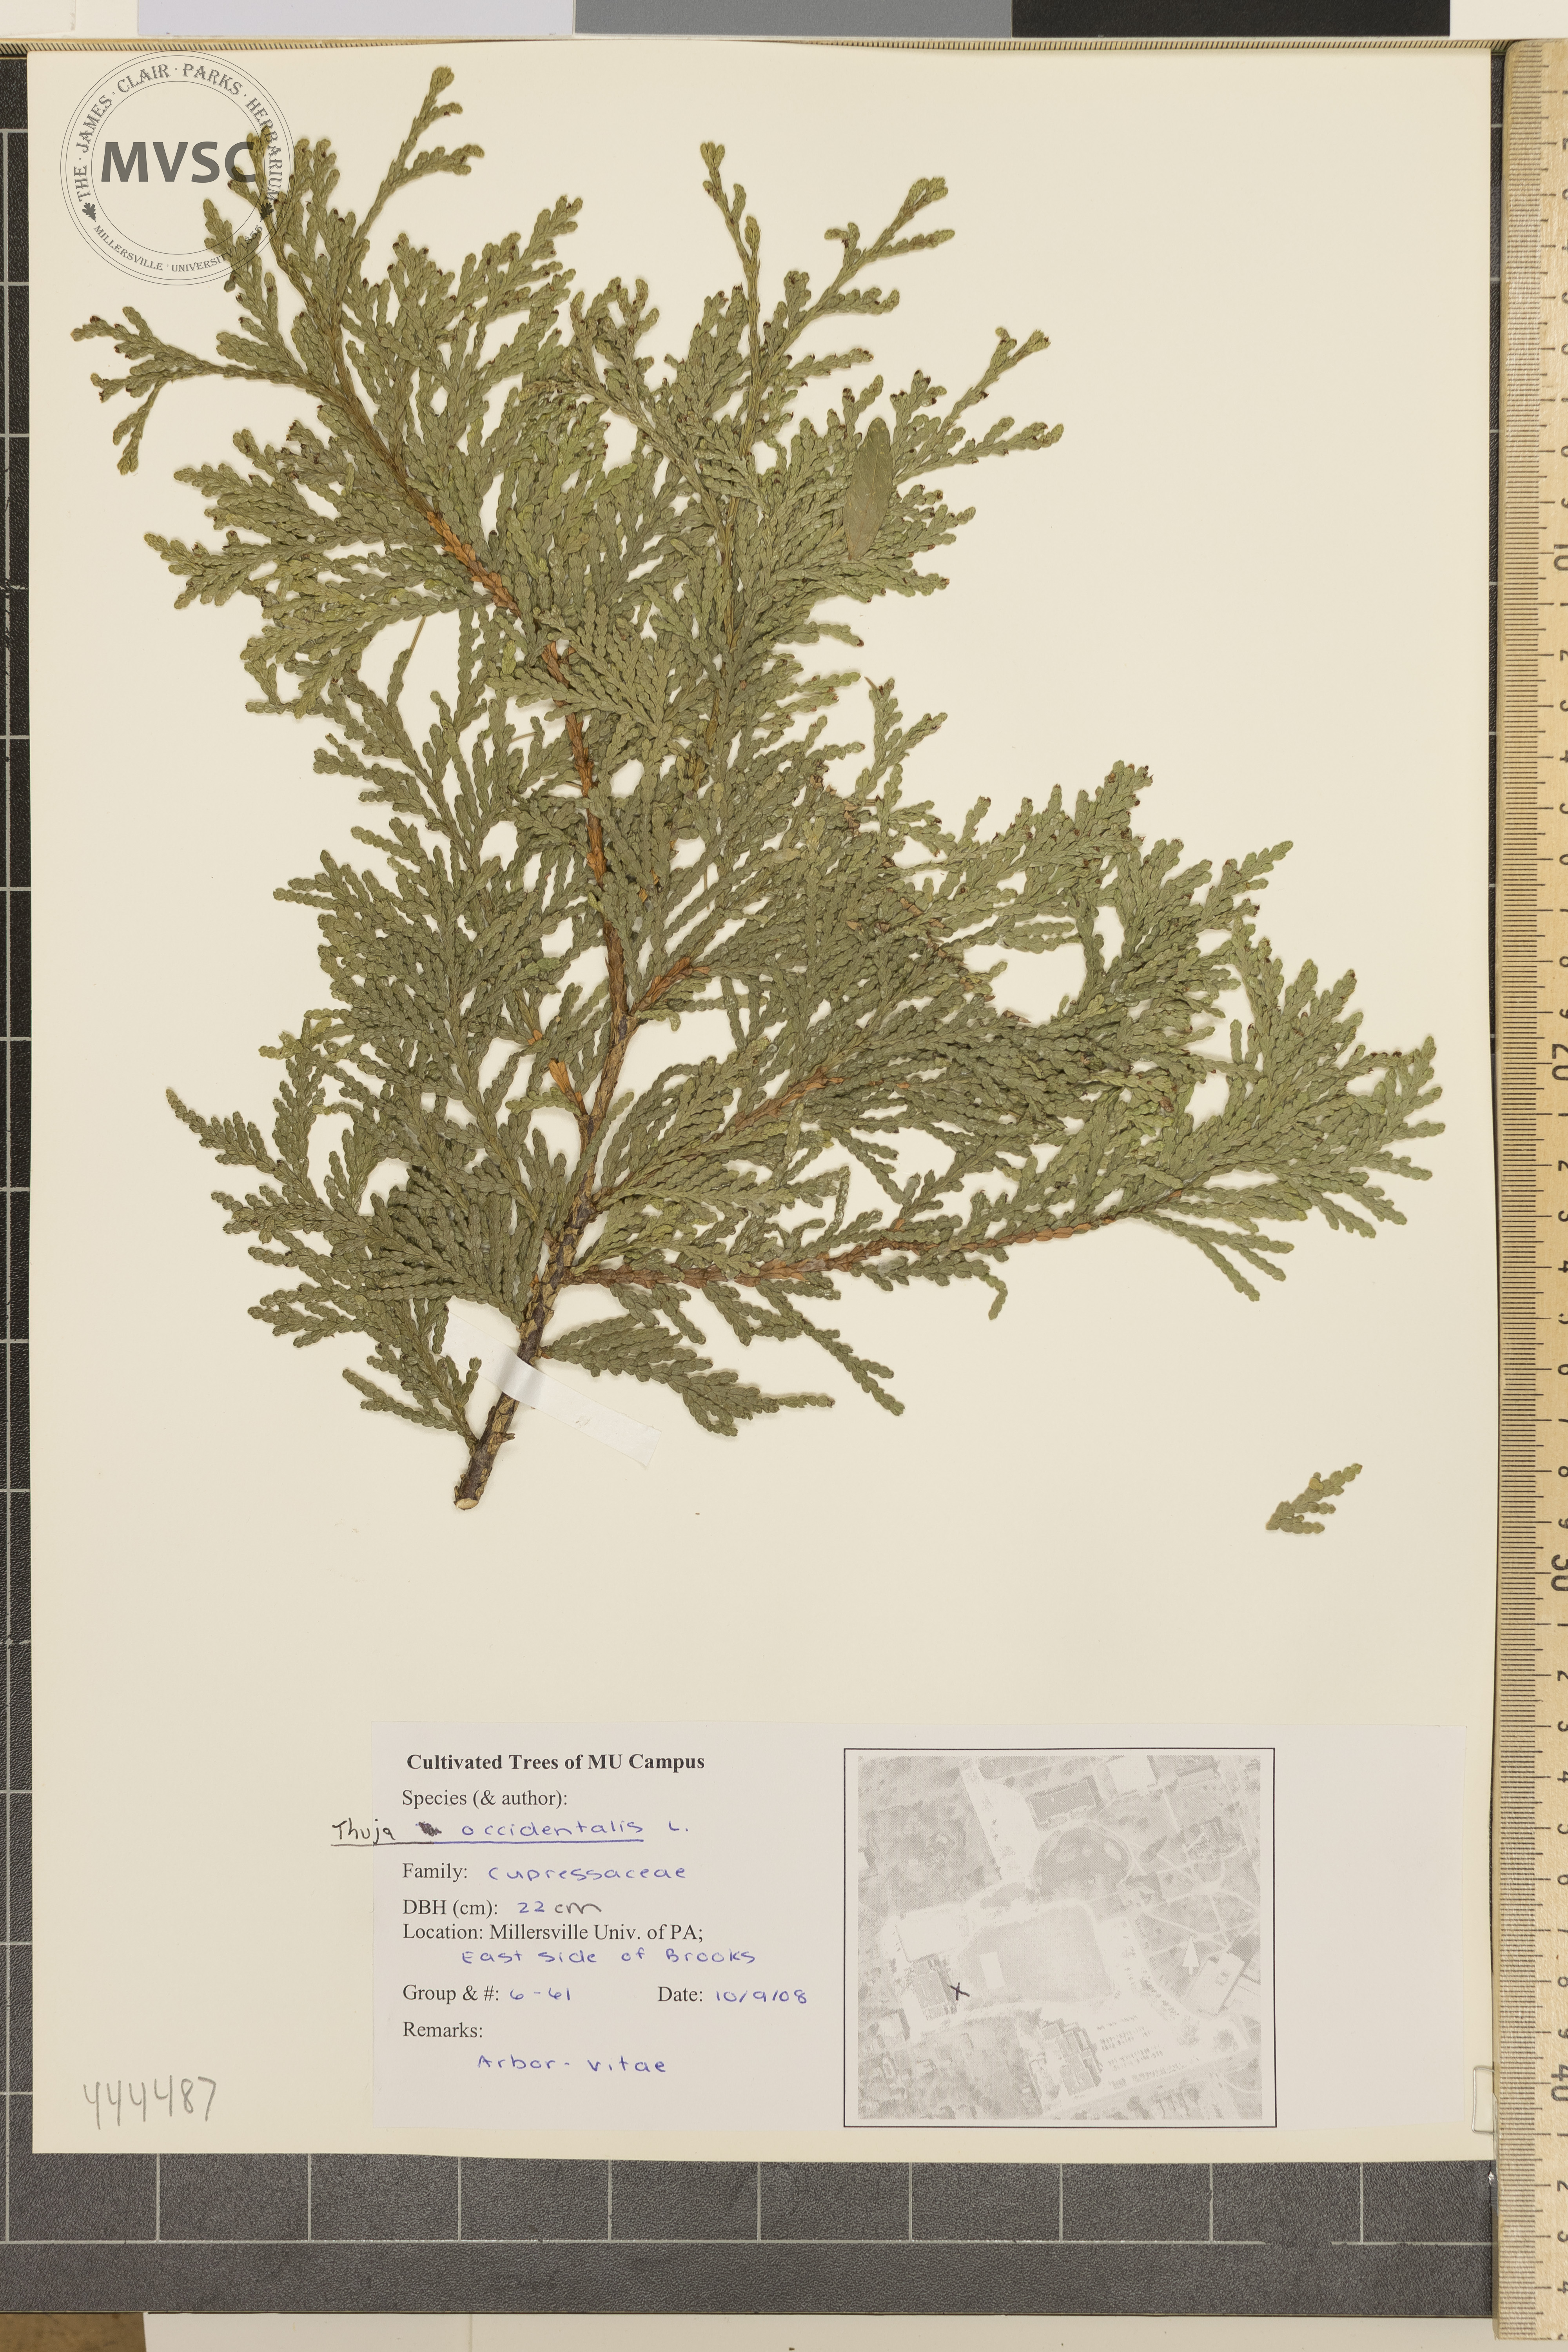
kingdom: Plantae
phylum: Tracheophyta
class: Pinopsida
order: Pinales
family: Cupressaceae
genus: Thuja
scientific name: Thuja occidentalis
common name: Arbor-vitae
